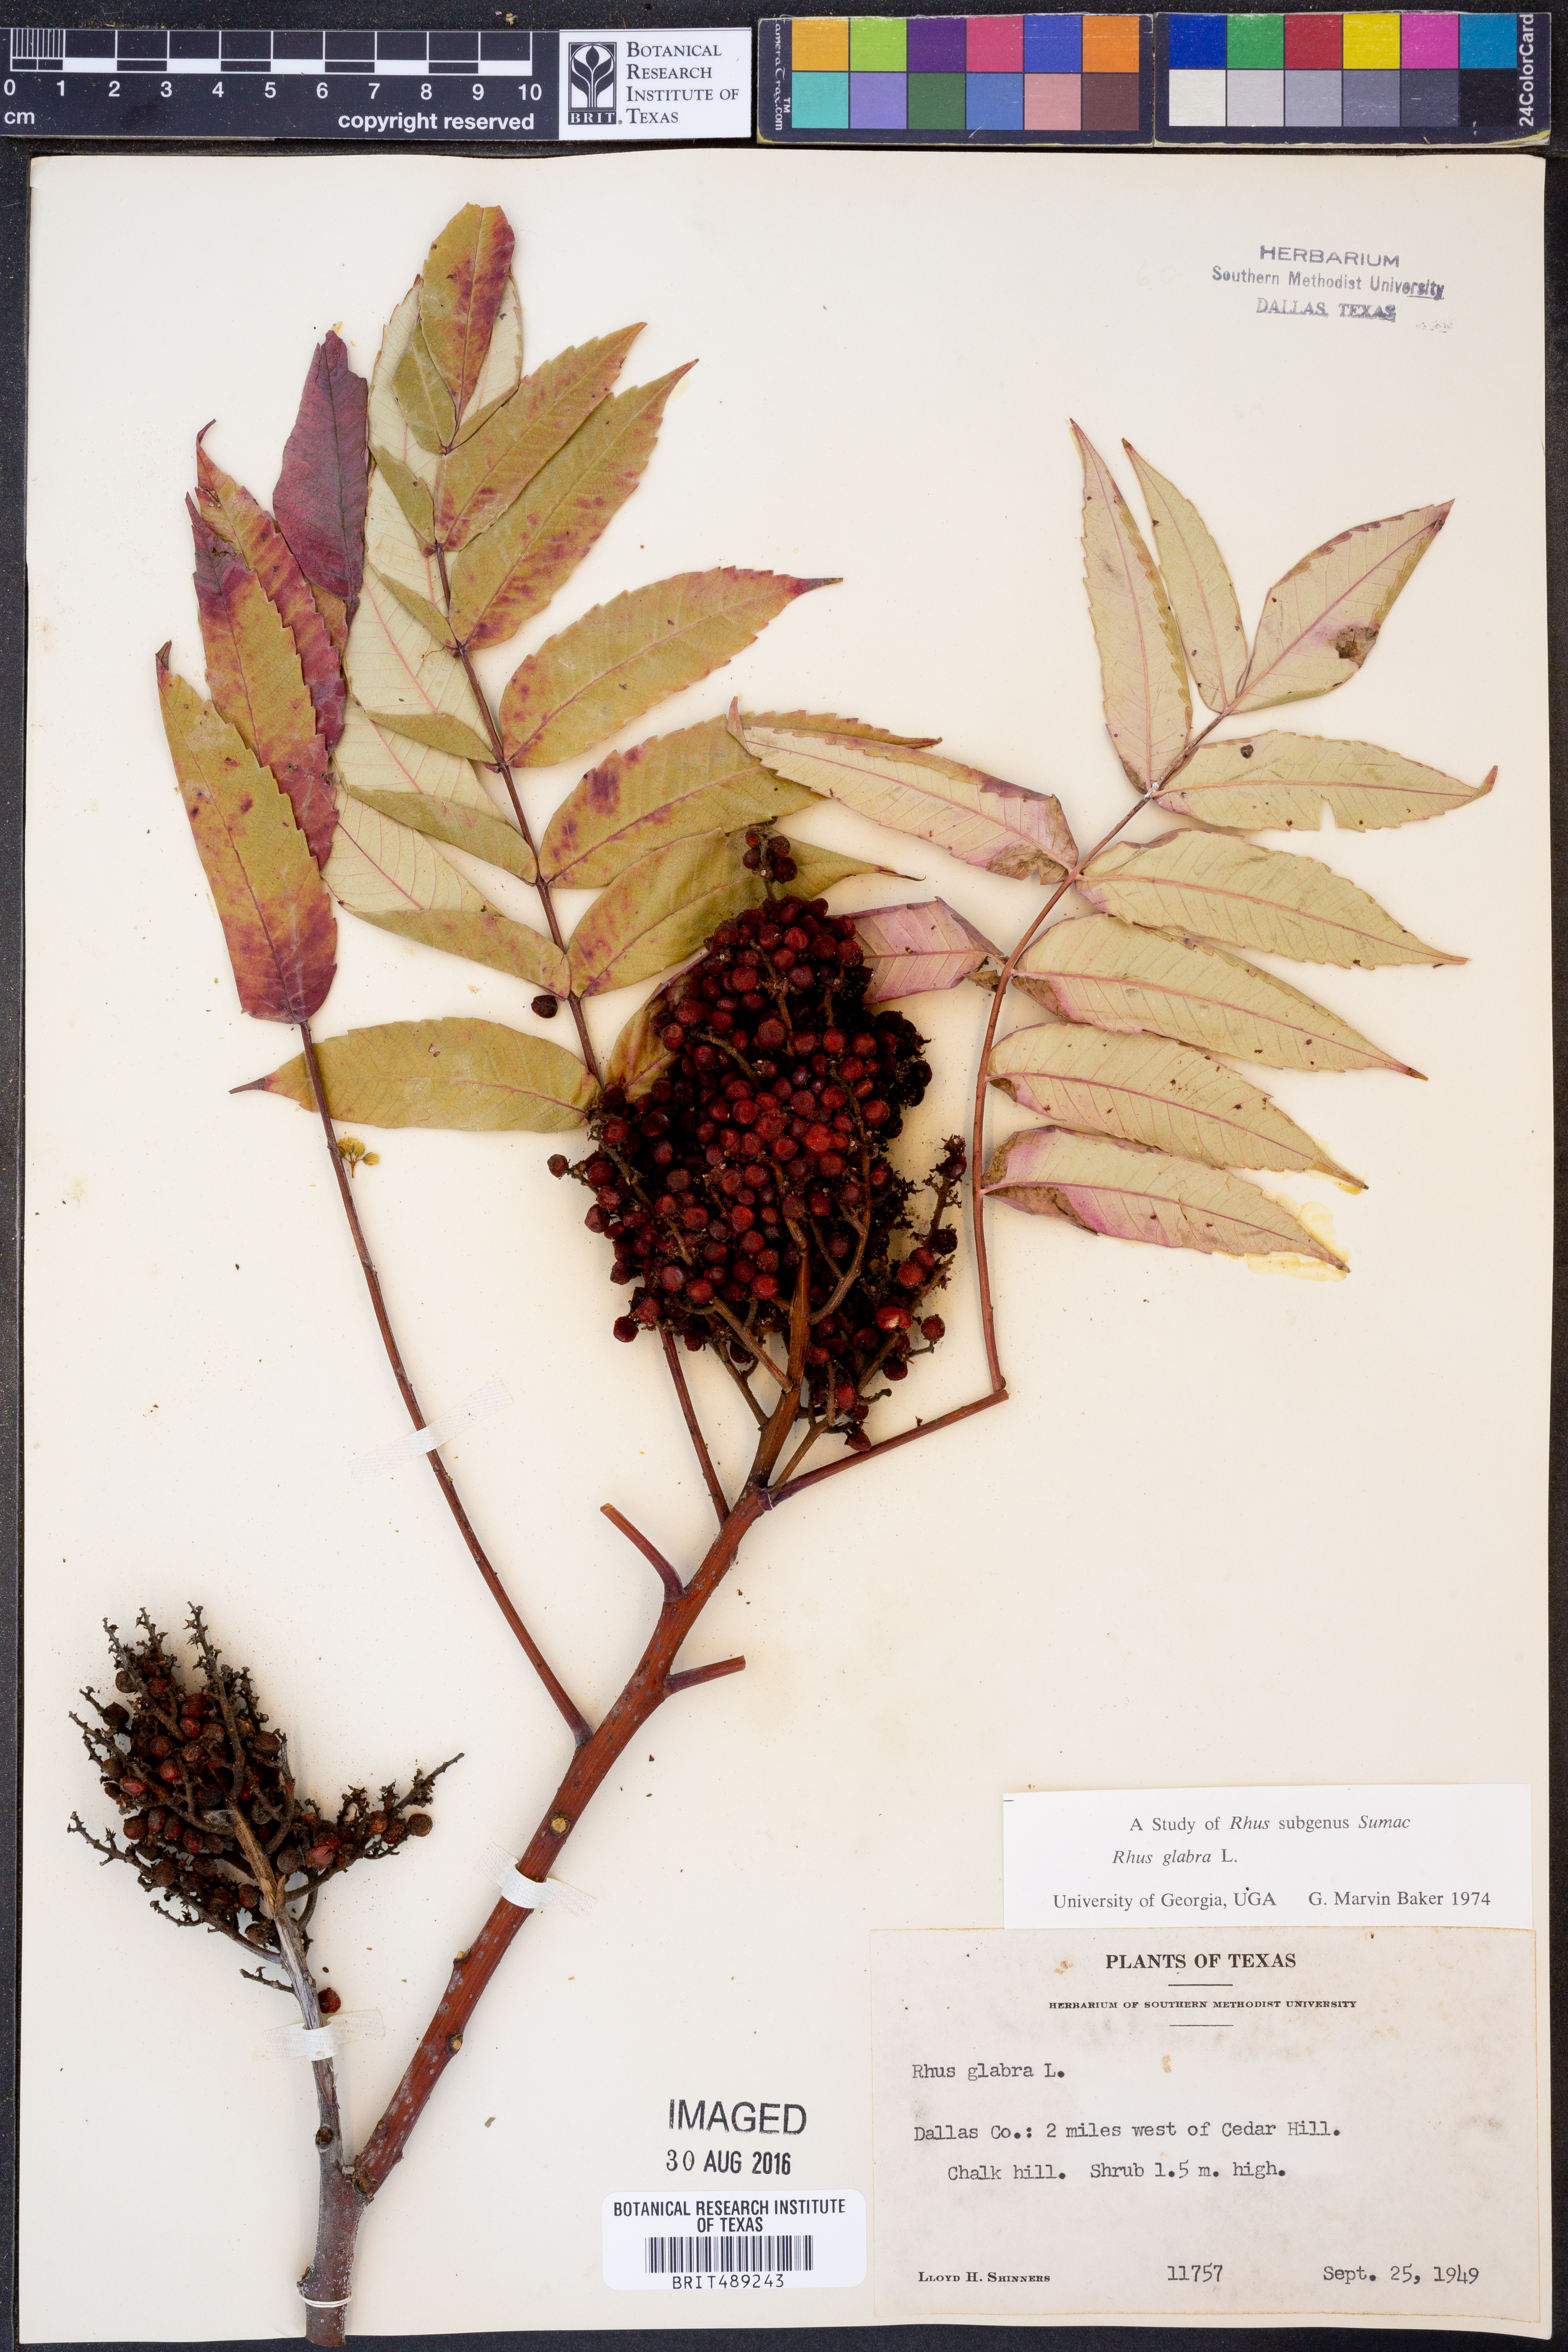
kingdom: Plantae
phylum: Tracheophyta
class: Magnoliopsida
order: Sapindales
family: Anacardiaceae
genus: Rhus
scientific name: Rhus glabra
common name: Scarlet sumac
